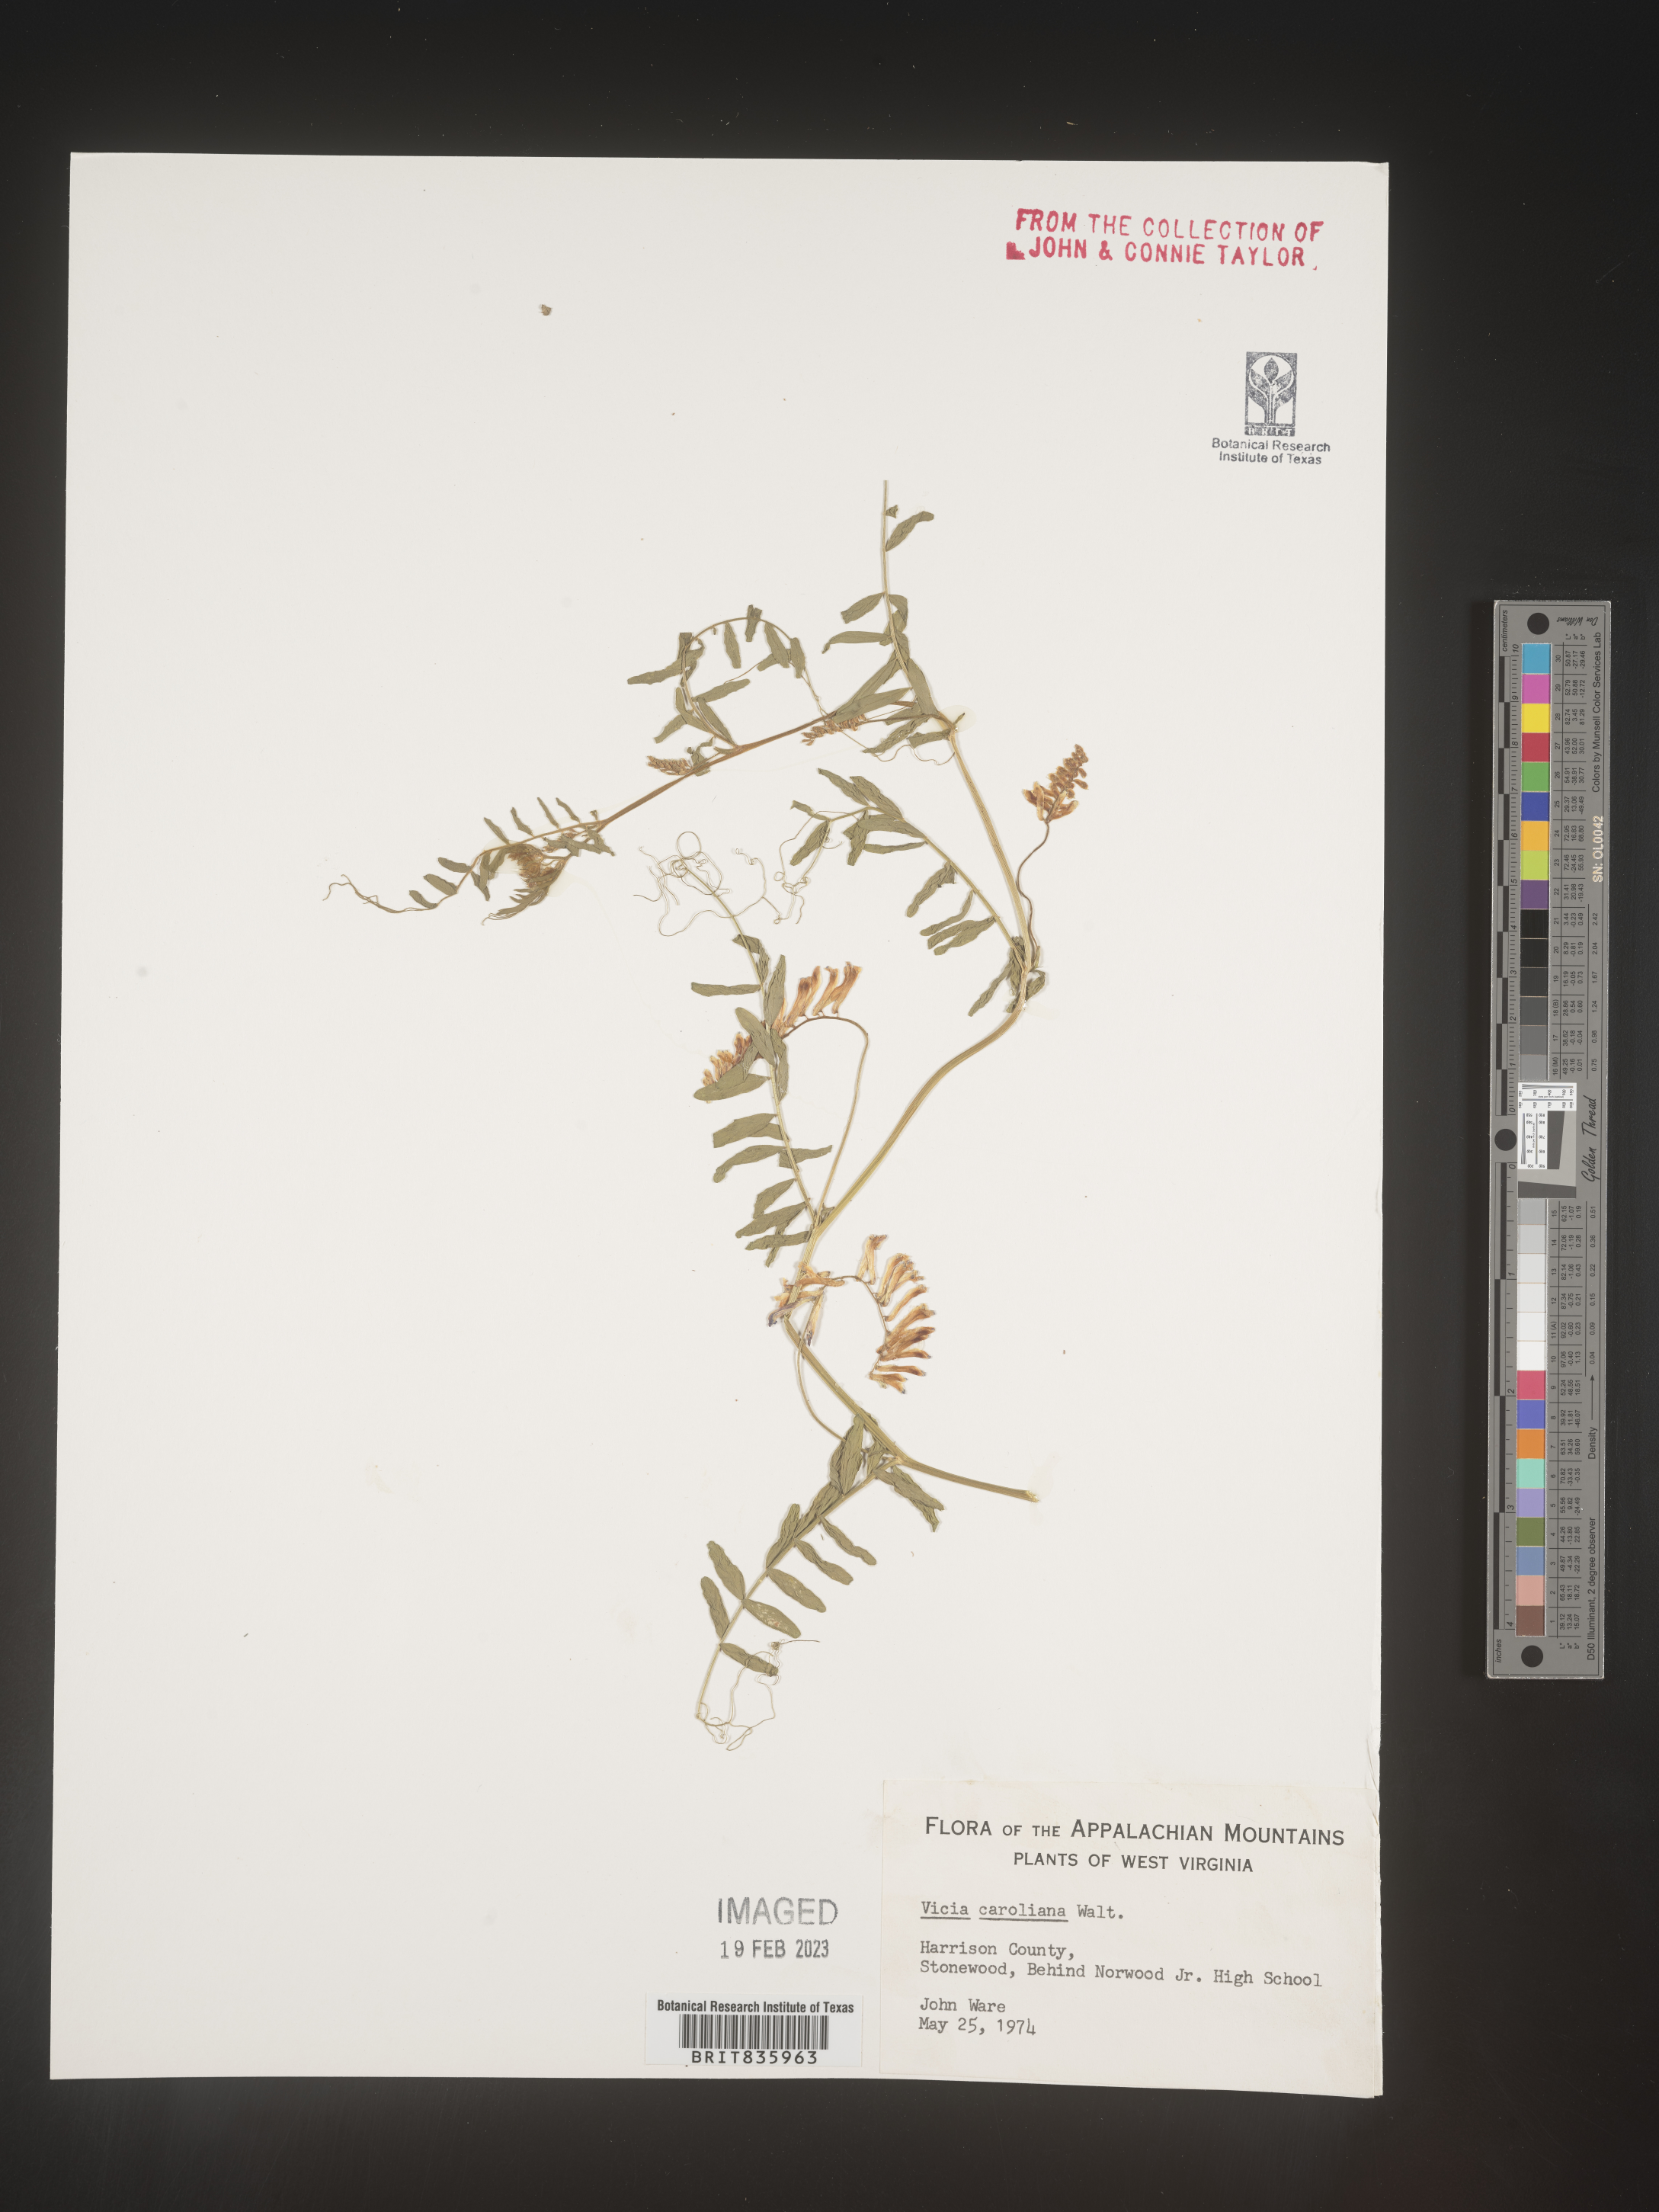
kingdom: Plantae
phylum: Tracheophyta
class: Magnoliopsida
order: Fabales
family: Fabaceae
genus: Vicia
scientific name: Vicia caroliniana
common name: Carolina vetch
